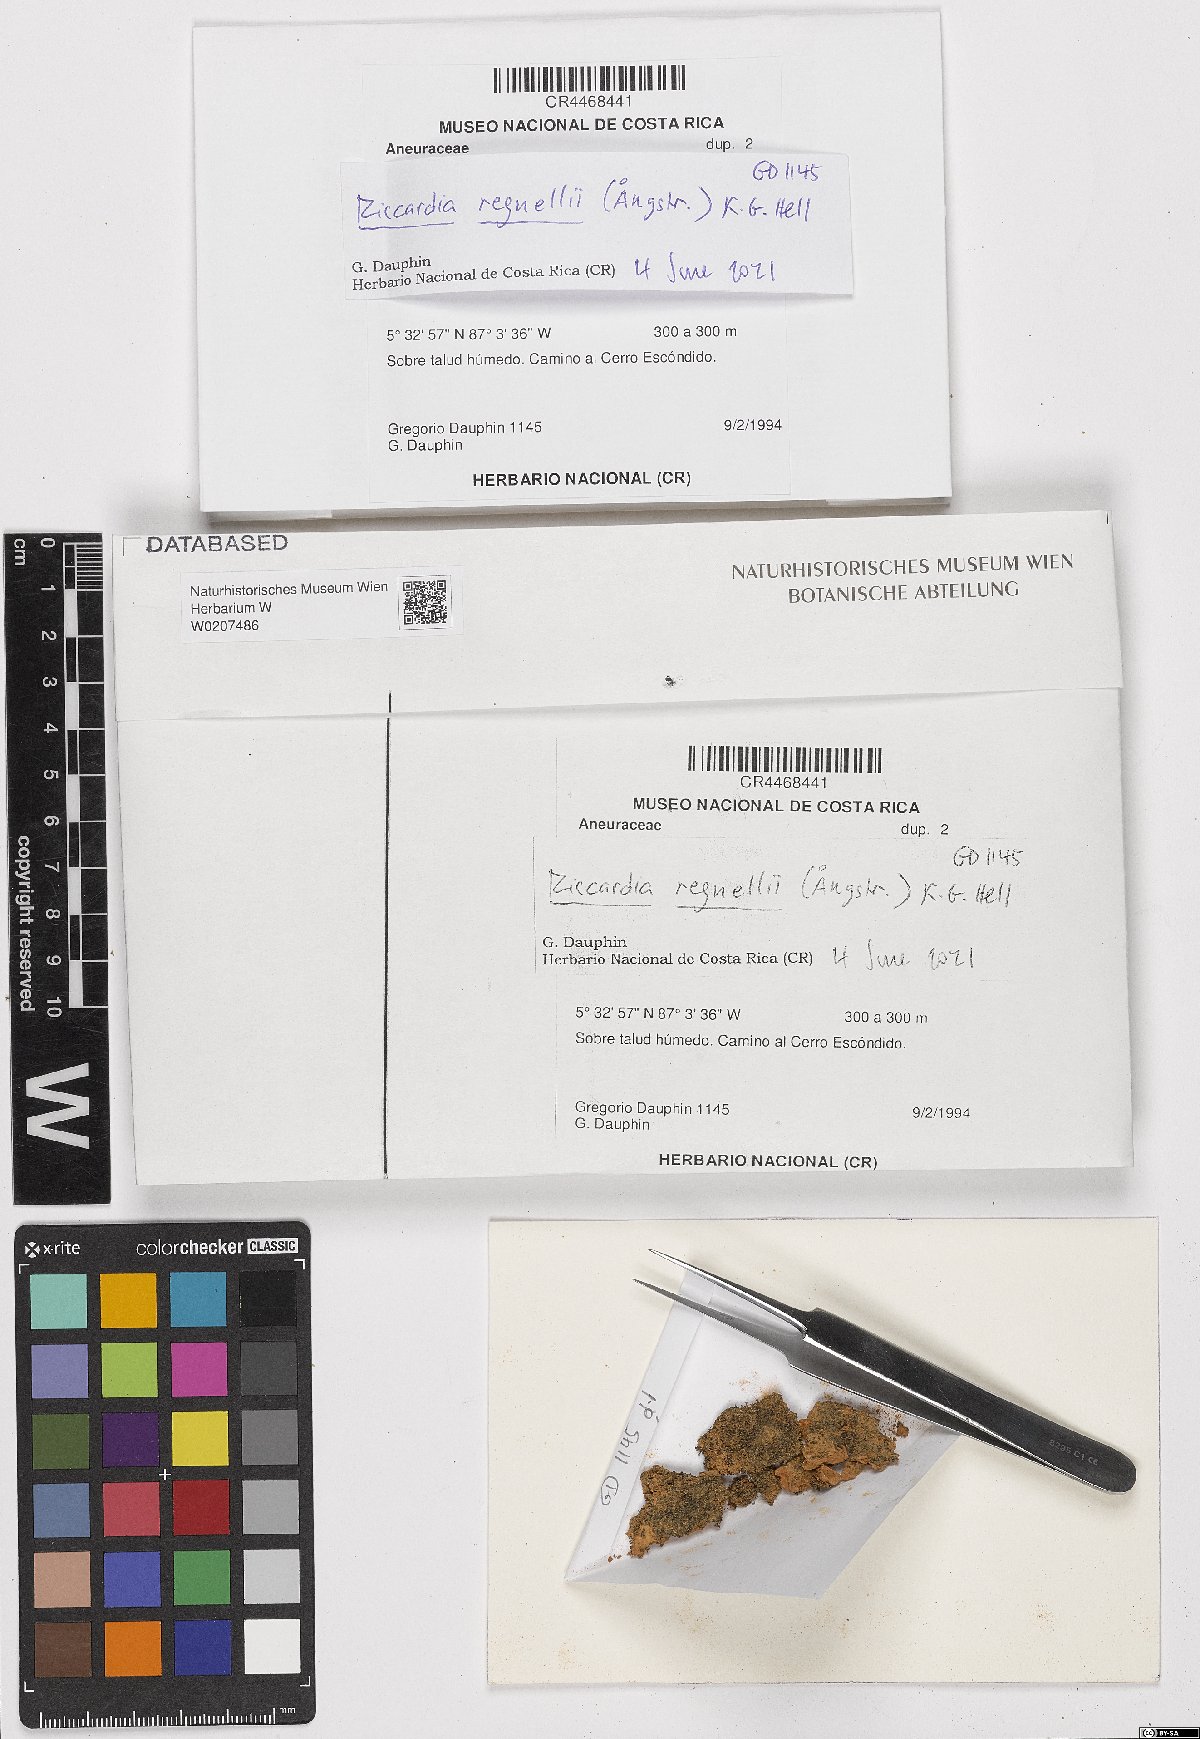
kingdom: Plantae
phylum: Marchantiophyta
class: Jungermanniopsida
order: Metzgeriales
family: Aneuraceae
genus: Riccardia
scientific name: Riccardia regnellii
